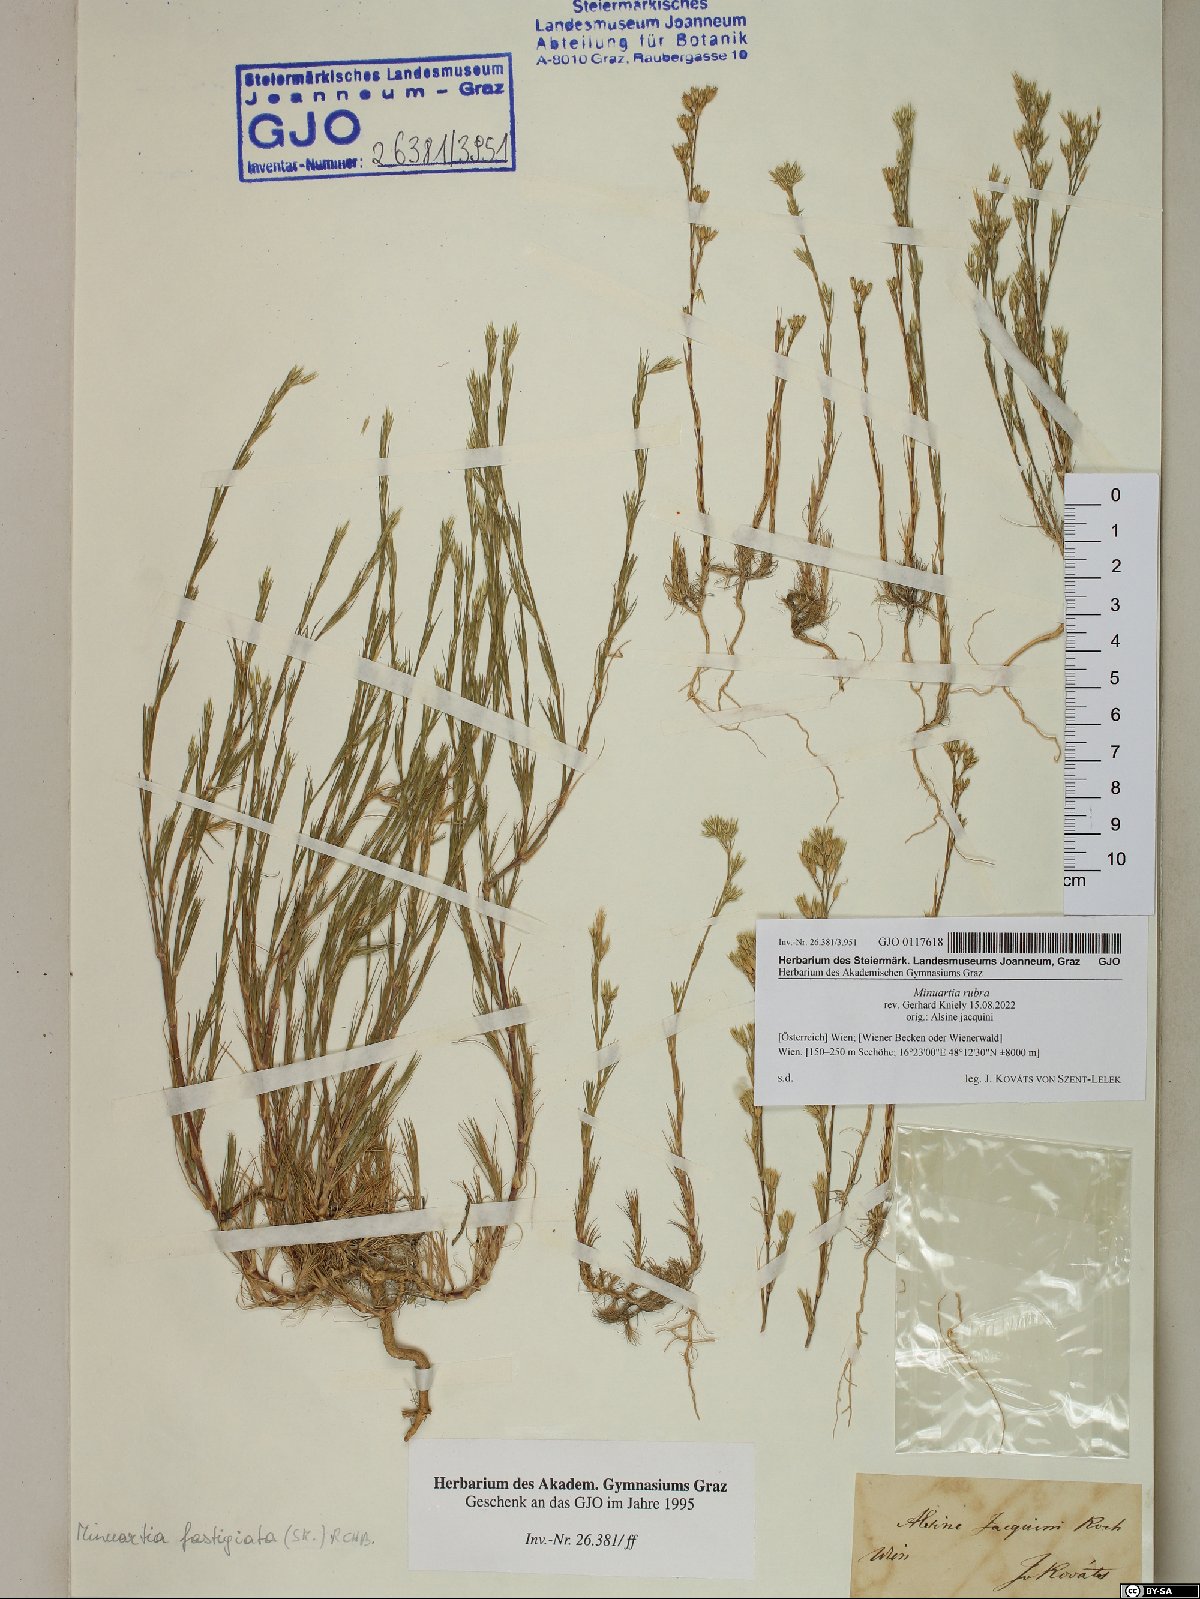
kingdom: Plantae
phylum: Tracheophyta
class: Magnoliopsida
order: Caryophyllales
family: Caryophyllaceae
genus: Minuartia
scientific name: Minuartia mucronata
